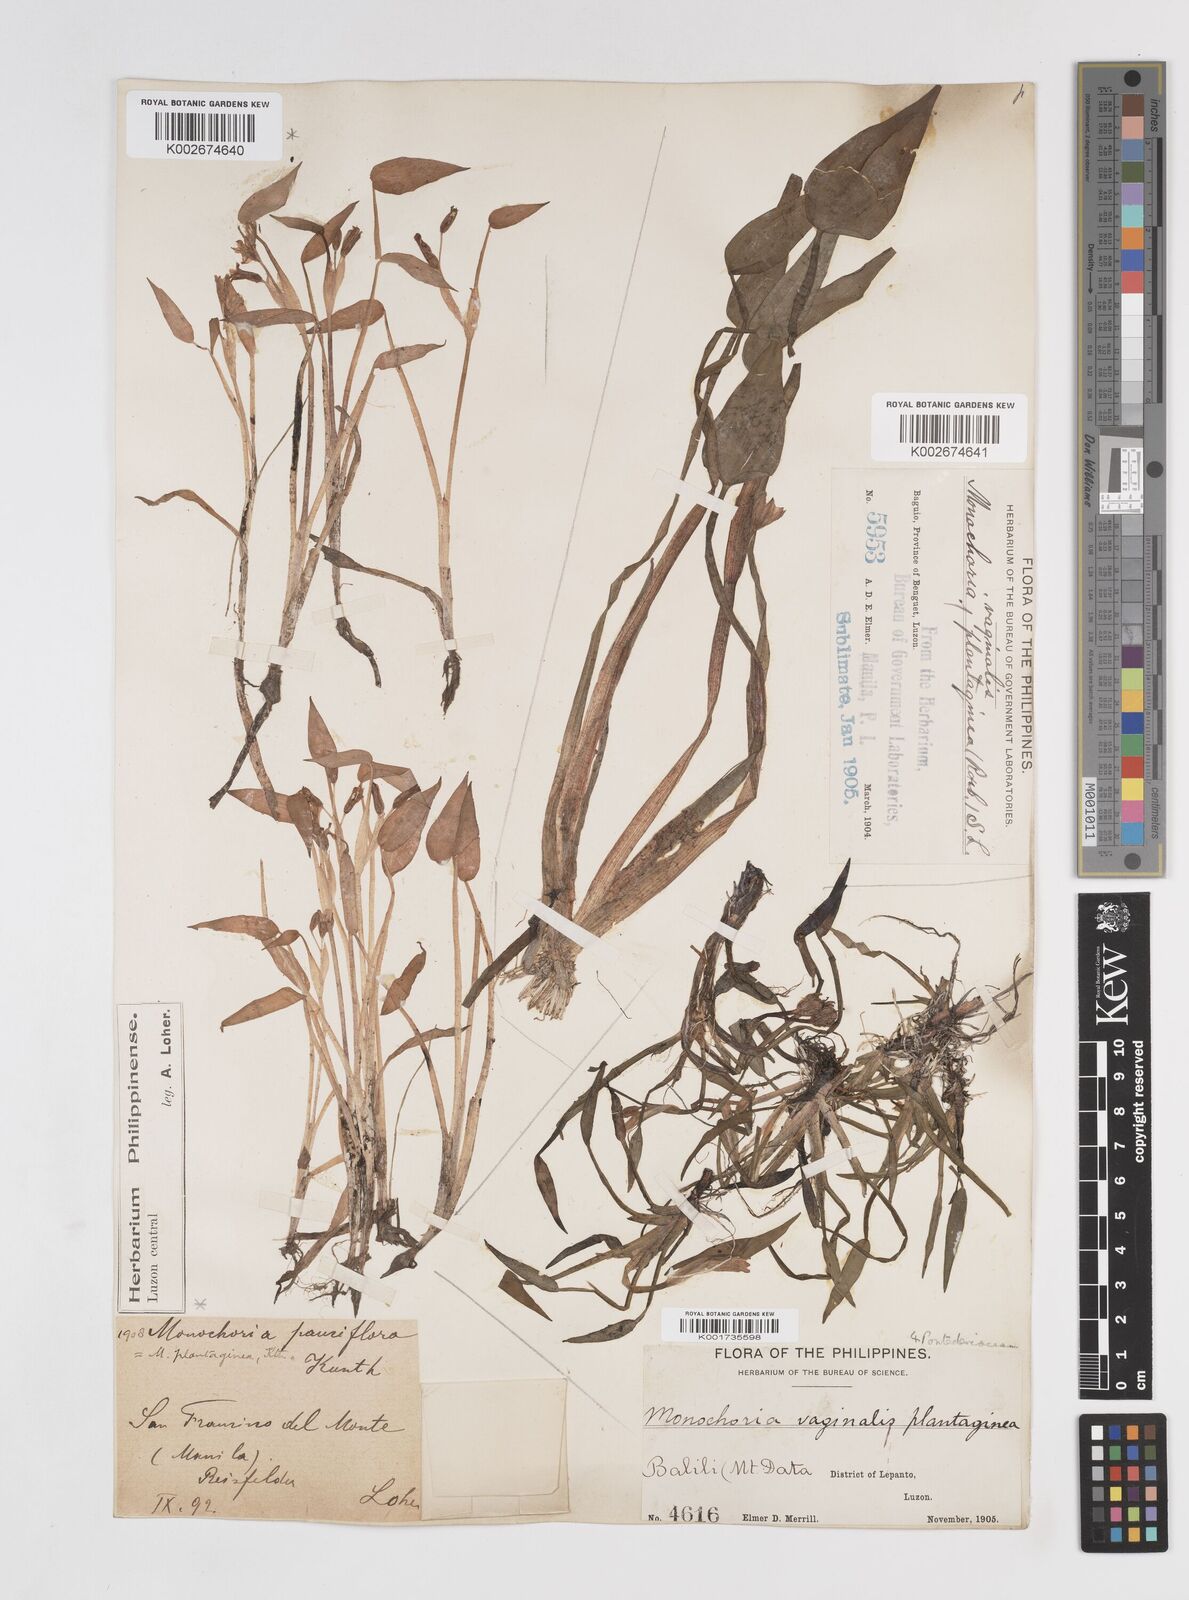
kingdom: Plantae
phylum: Tracheophyta
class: Liliopsida
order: Commelinales
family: Pontederiaceae
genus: Pontederia
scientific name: Pontederia vaginalis
